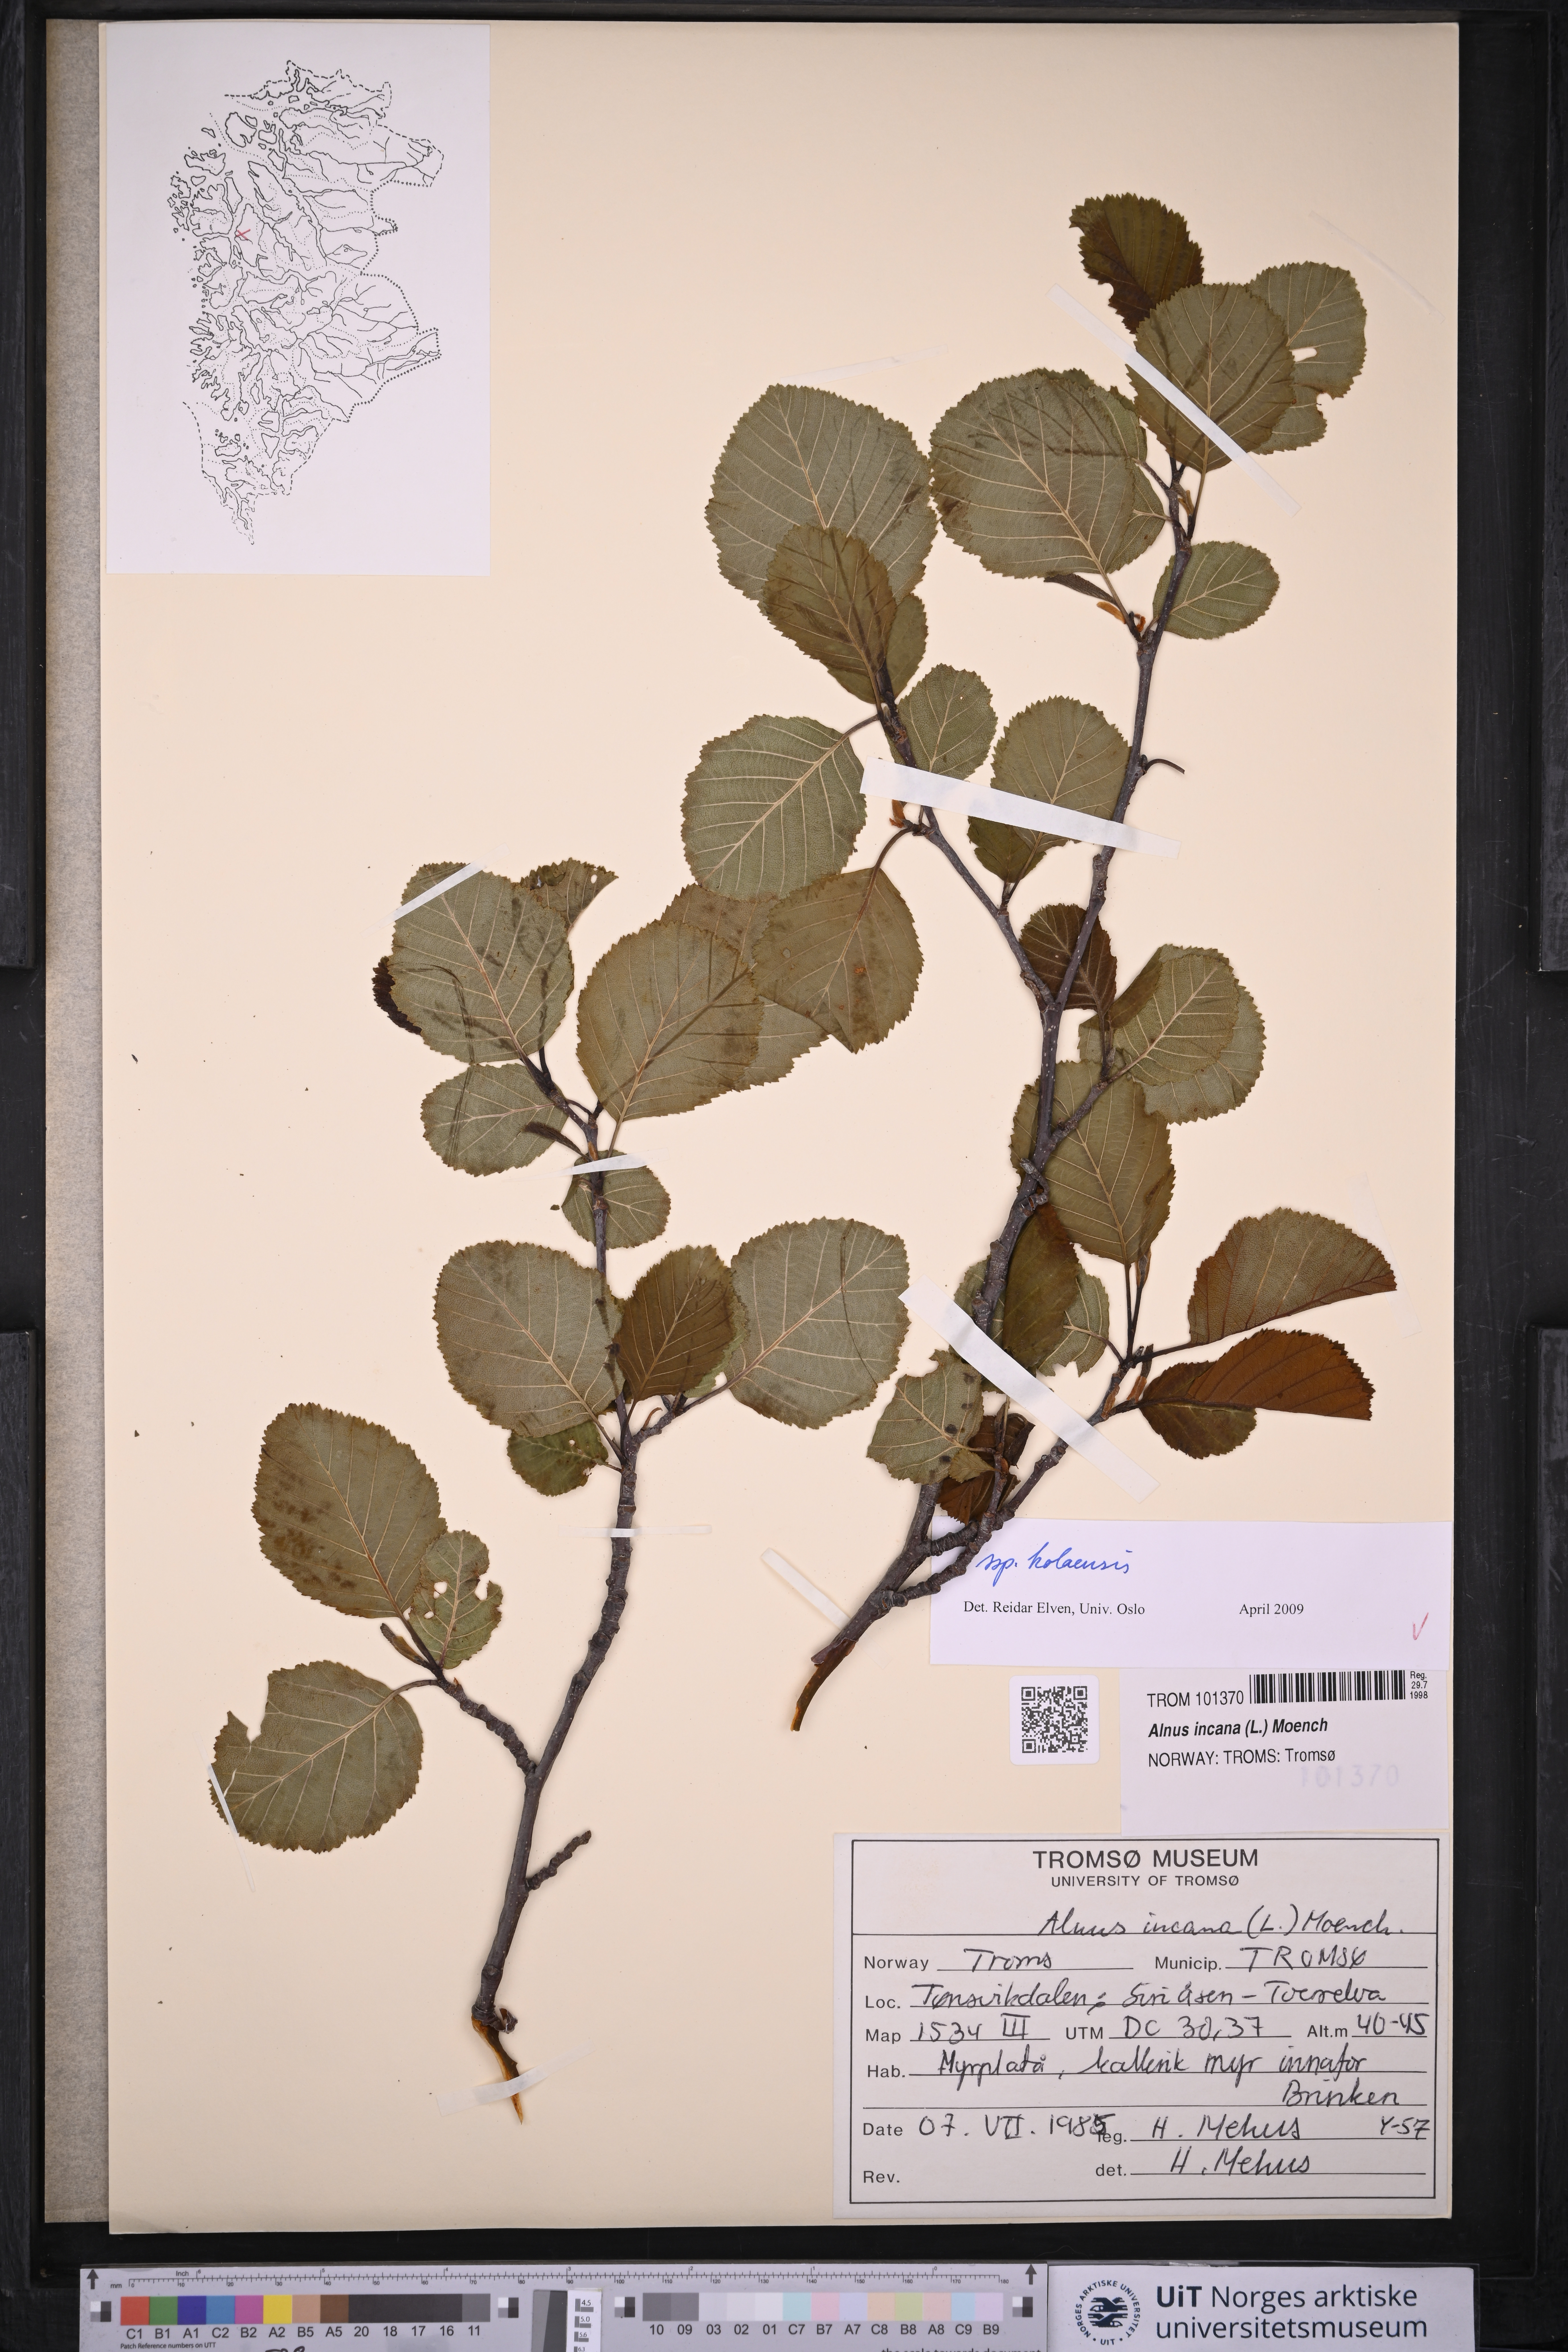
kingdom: Plantae
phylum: Tracheophyta
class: Magnoliopsida
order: Fagales
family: Betulaceae
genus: Alnus
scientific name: Alnus incana
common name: Grey alder
